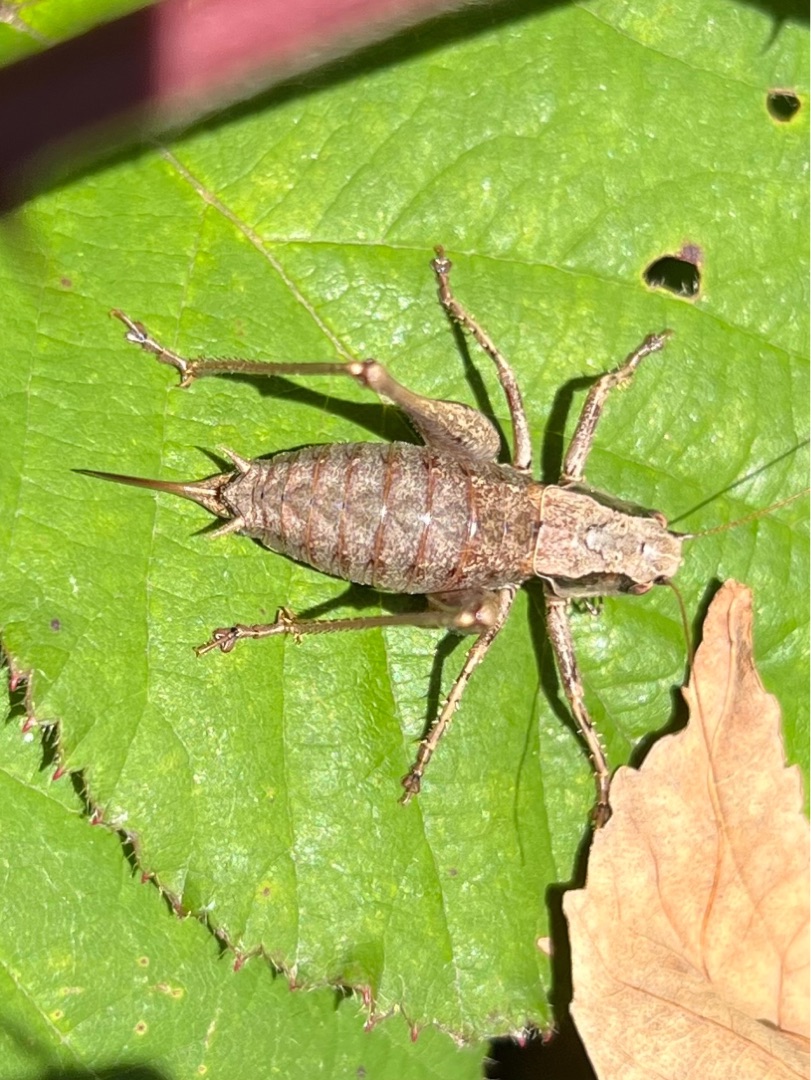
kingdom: Animalia
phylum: Arthropoda
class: Insecta
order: Orthoptera
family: Tettigoniidae
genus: Pholidoptera
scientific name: Pholidoptera griseoaptera
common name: Buskgræshoppe
